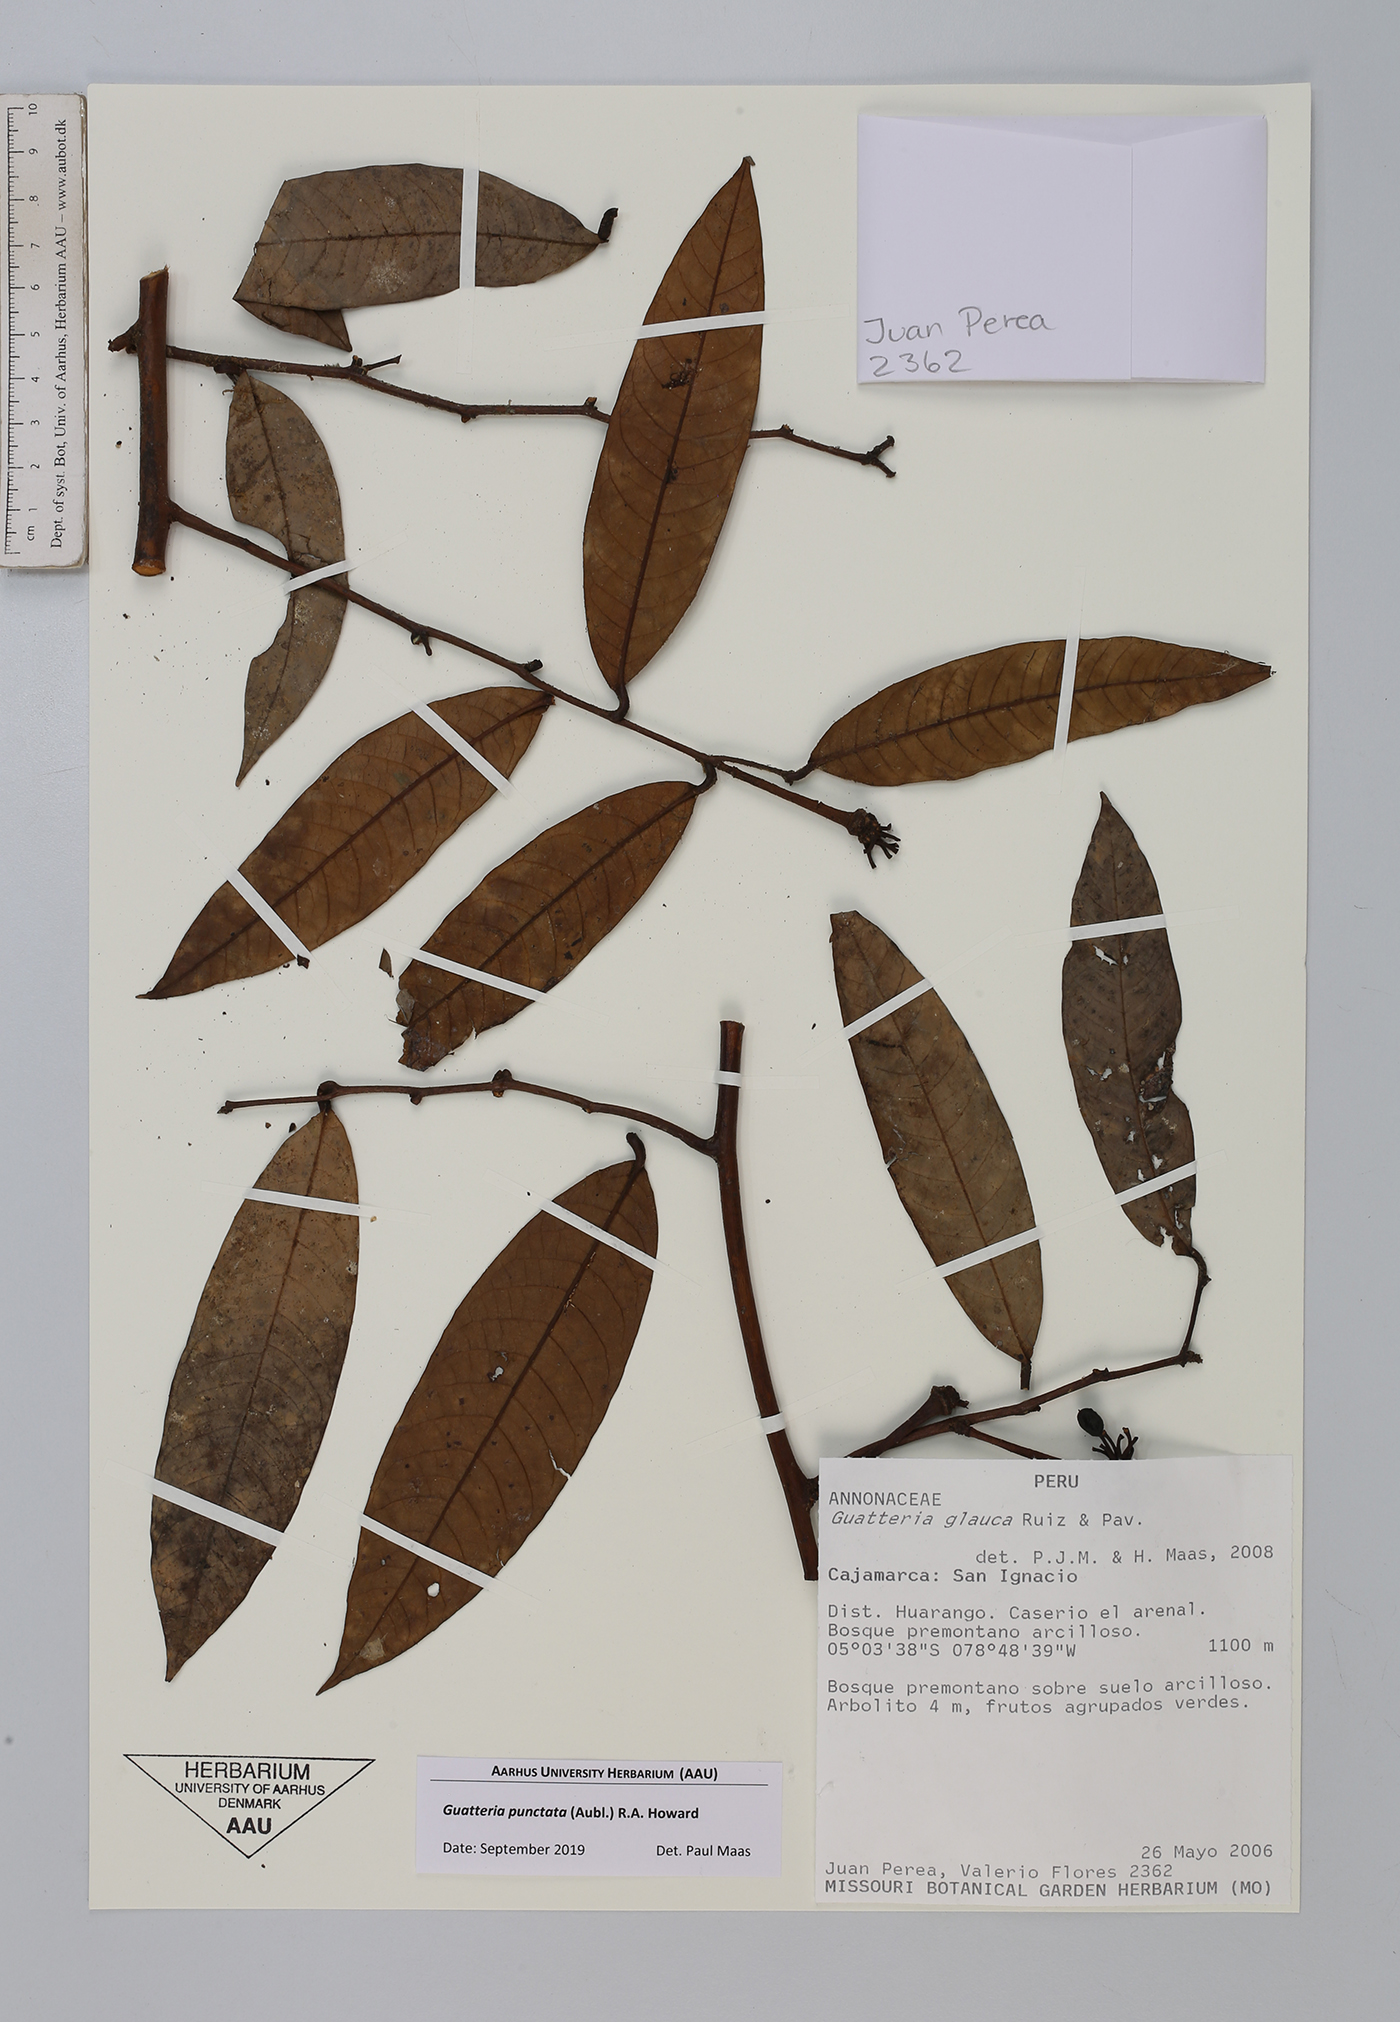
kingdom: Plantae
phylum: Tracheophyta
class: Magnoliopsida
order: Magnoliales
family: Annonaceae
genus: Guatteria
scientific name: Guatteria punctata
